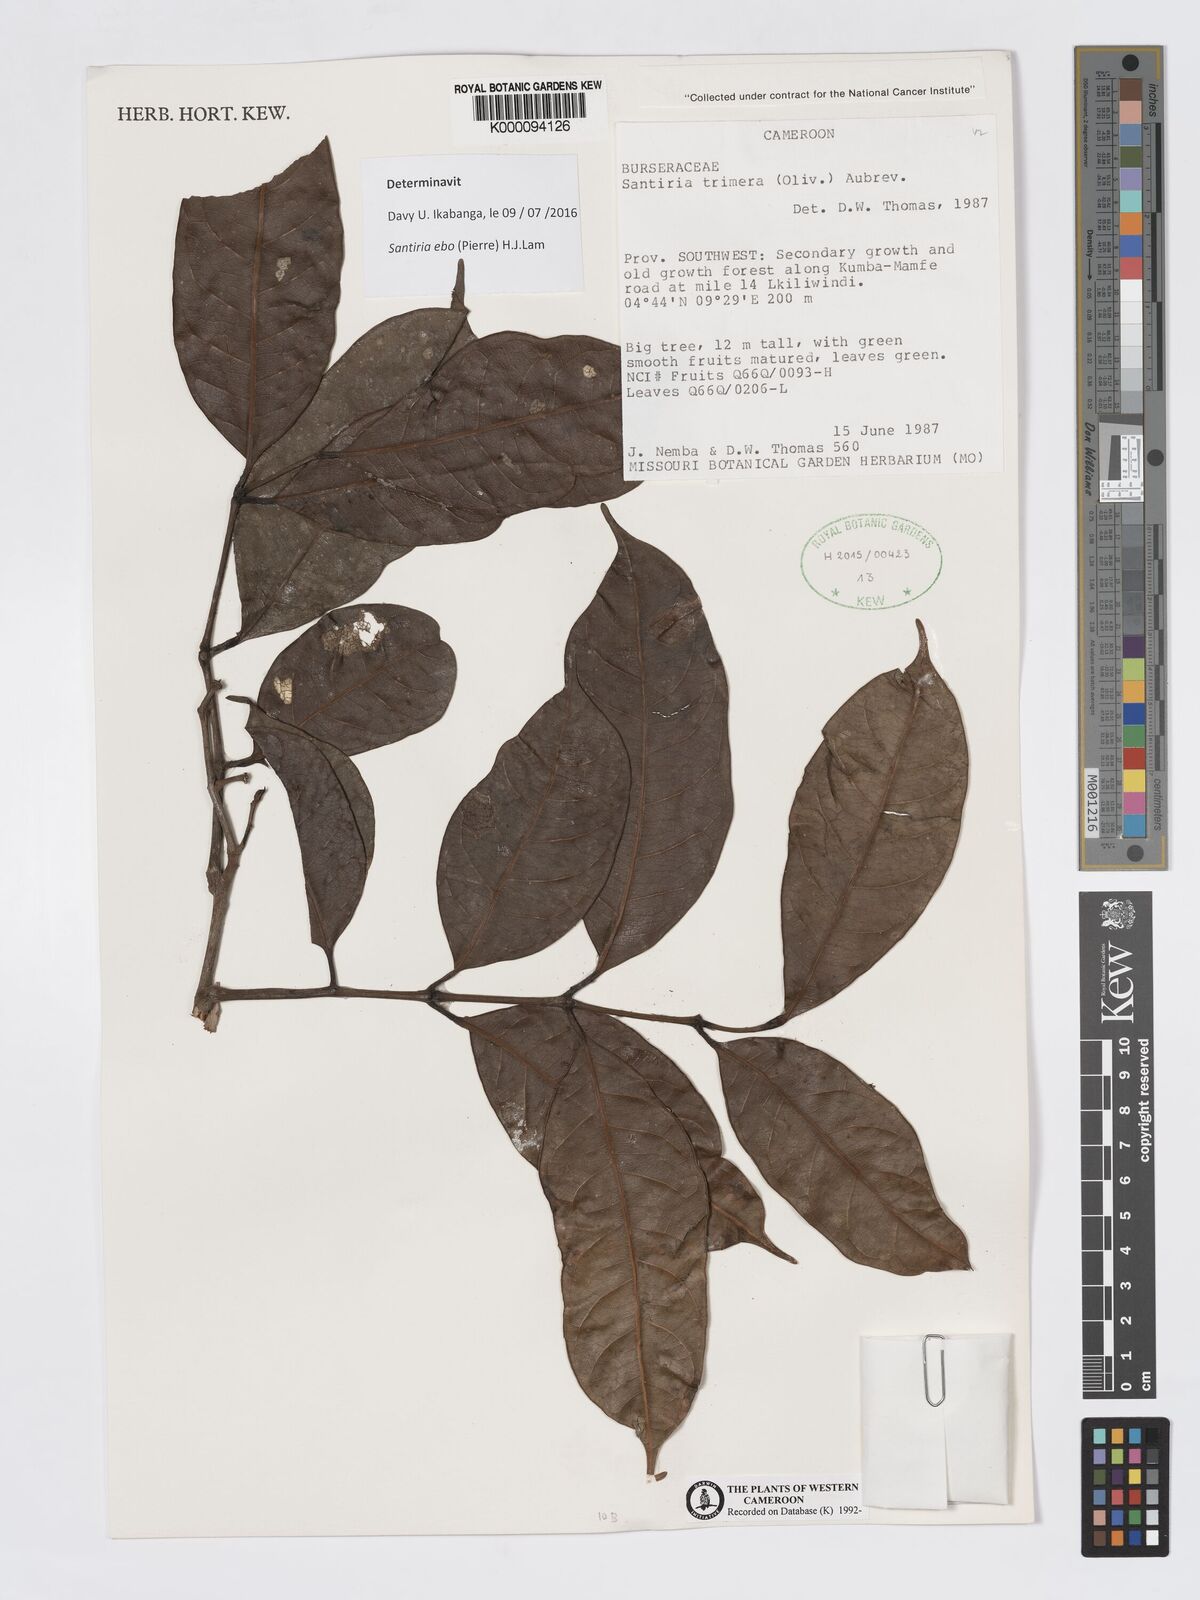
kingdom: Plantae
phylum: Tracheophyta
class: Magnoliopsida
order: Sapindales
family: Burseraceae
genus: Santiria
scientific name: Santiria
